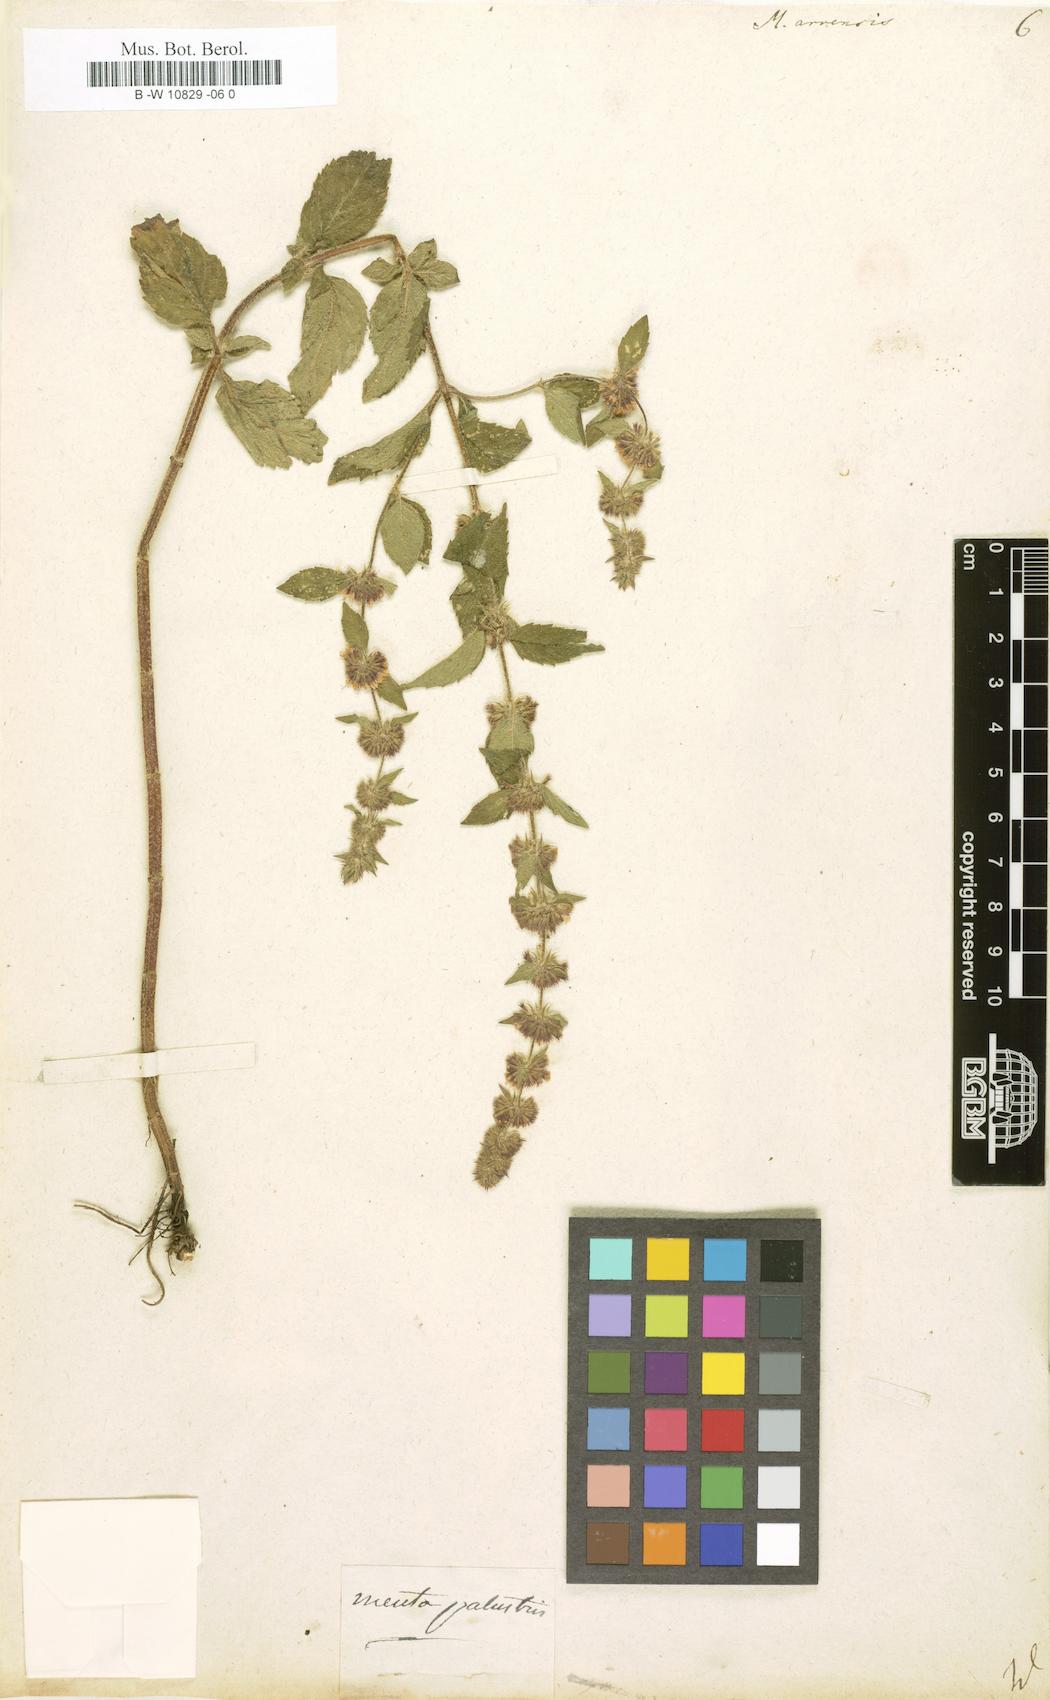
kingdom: Plantae
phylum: Tracheophyta
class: Magnoliopsida
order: Lamiales
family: Lamiaceae
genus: Mentha
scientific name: Mentha arvensis
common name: Corn mint
